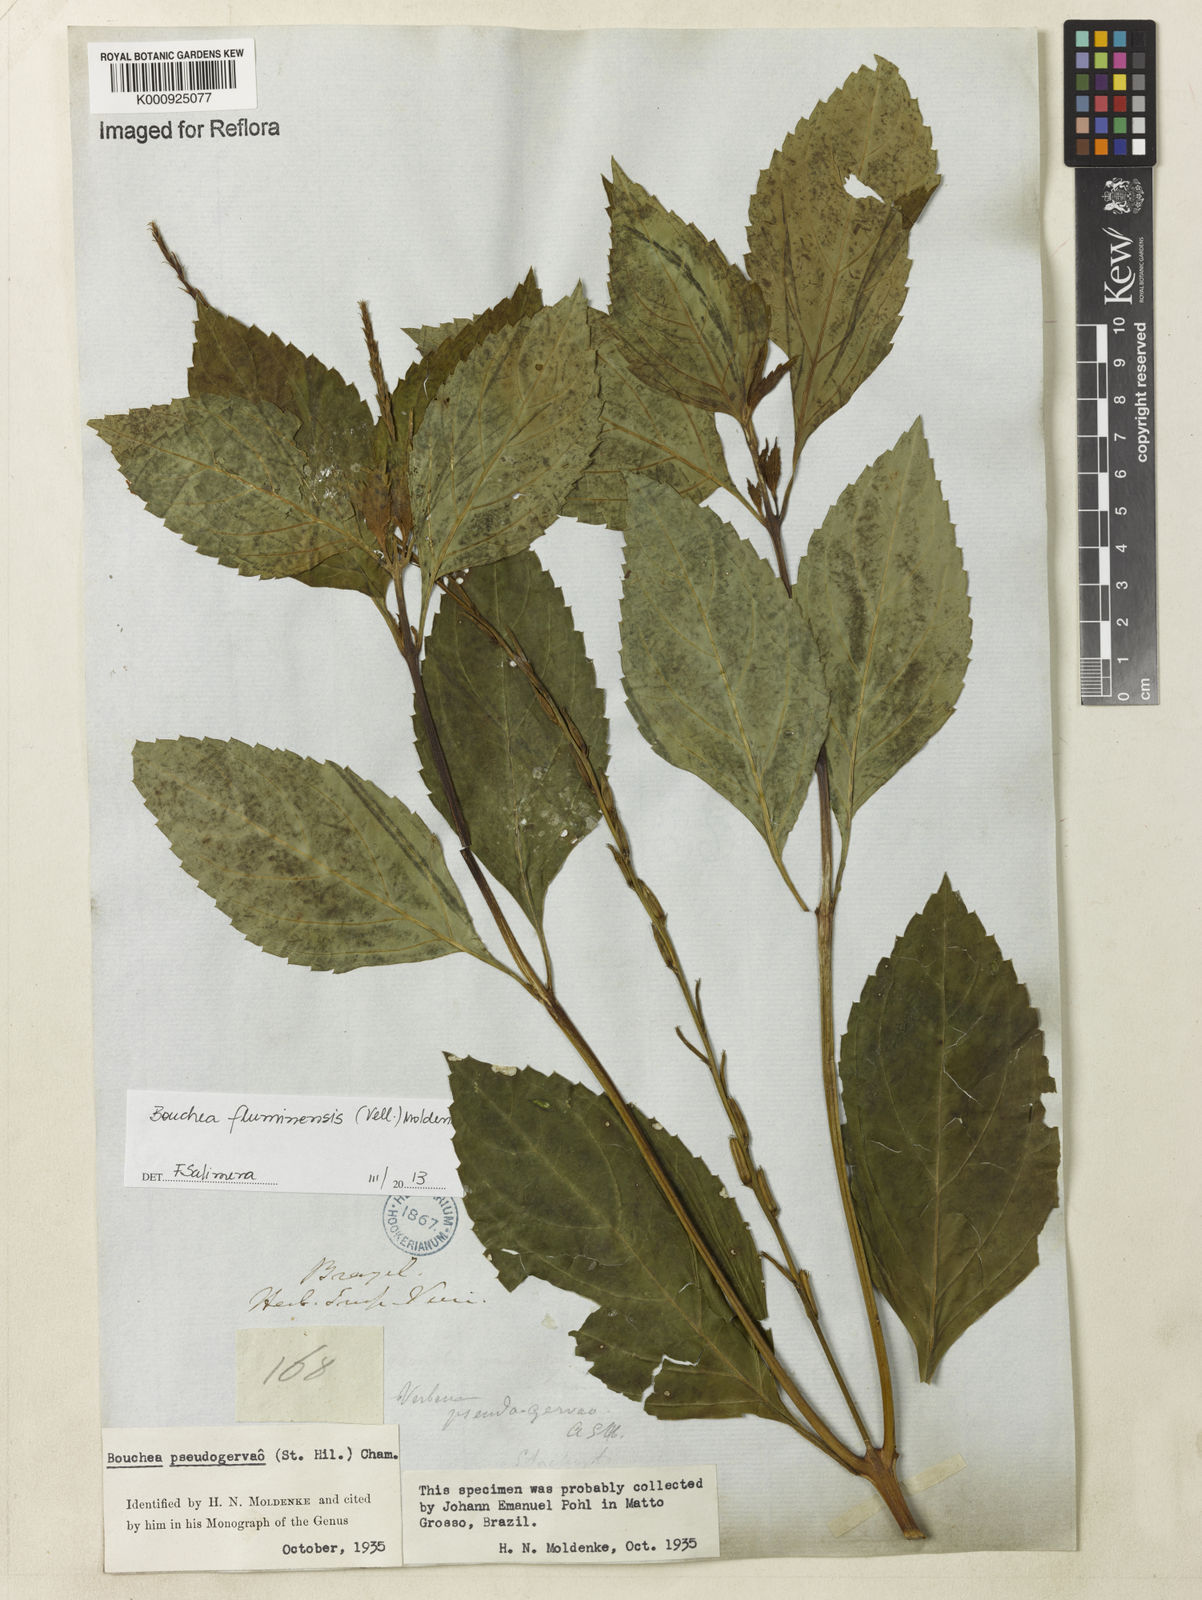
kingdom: Plantae
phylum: Tracheophyta
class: Magnoliopsida
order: Lamiales
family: Verbenaceae
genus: Bouchea
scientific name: Bouchea pseudogervao
